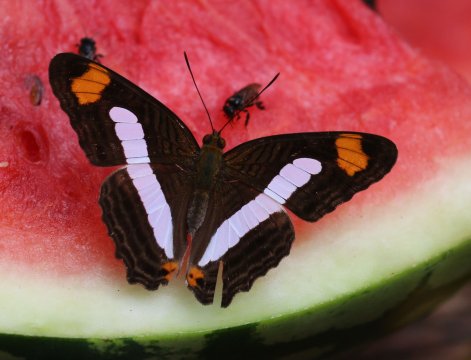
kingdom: Animalia
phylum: Arthropoda
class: Insecta
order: Lepidoptera
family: Nymphalidae
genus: Limenitis
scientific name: Limenitis Adelpha iphiclus
